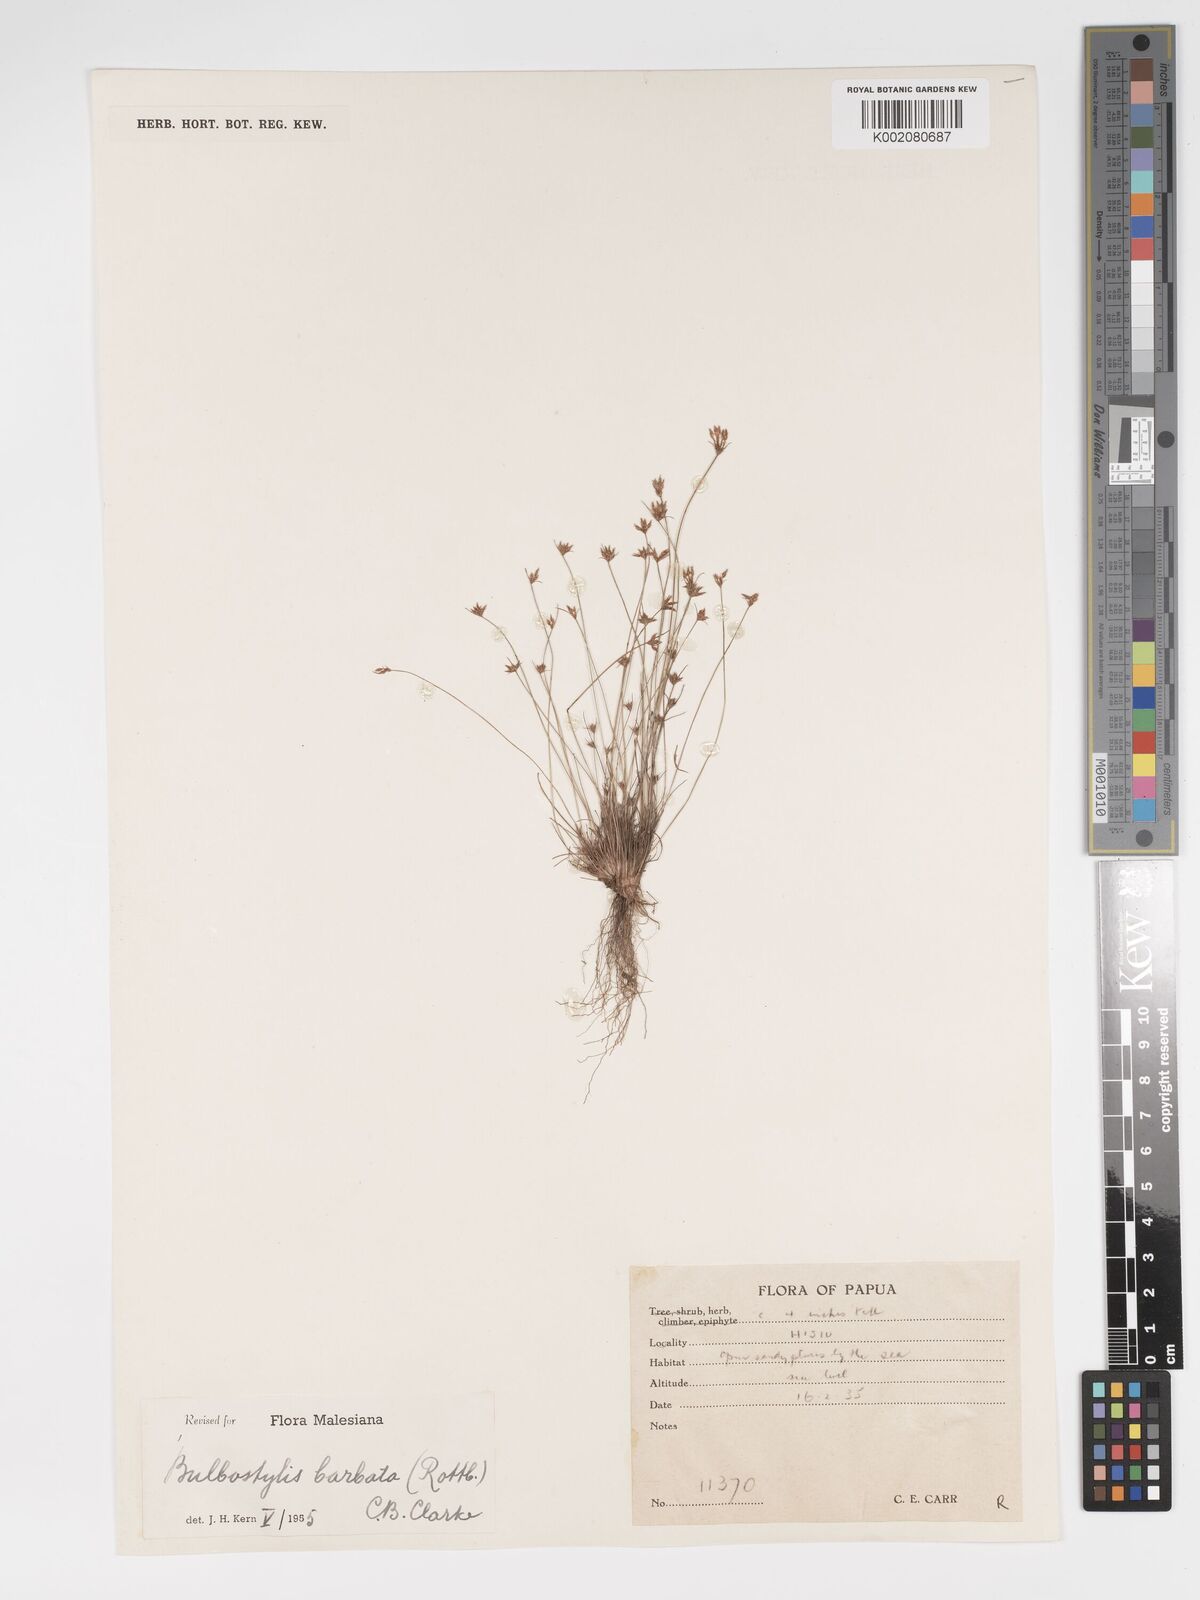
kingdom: Plantae
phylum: Tracheophyta
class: Liliopsida
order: Poales
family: Cyperaceae
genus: Bulbostylis
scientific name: Bulbostylis barbata
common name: Watergrass
